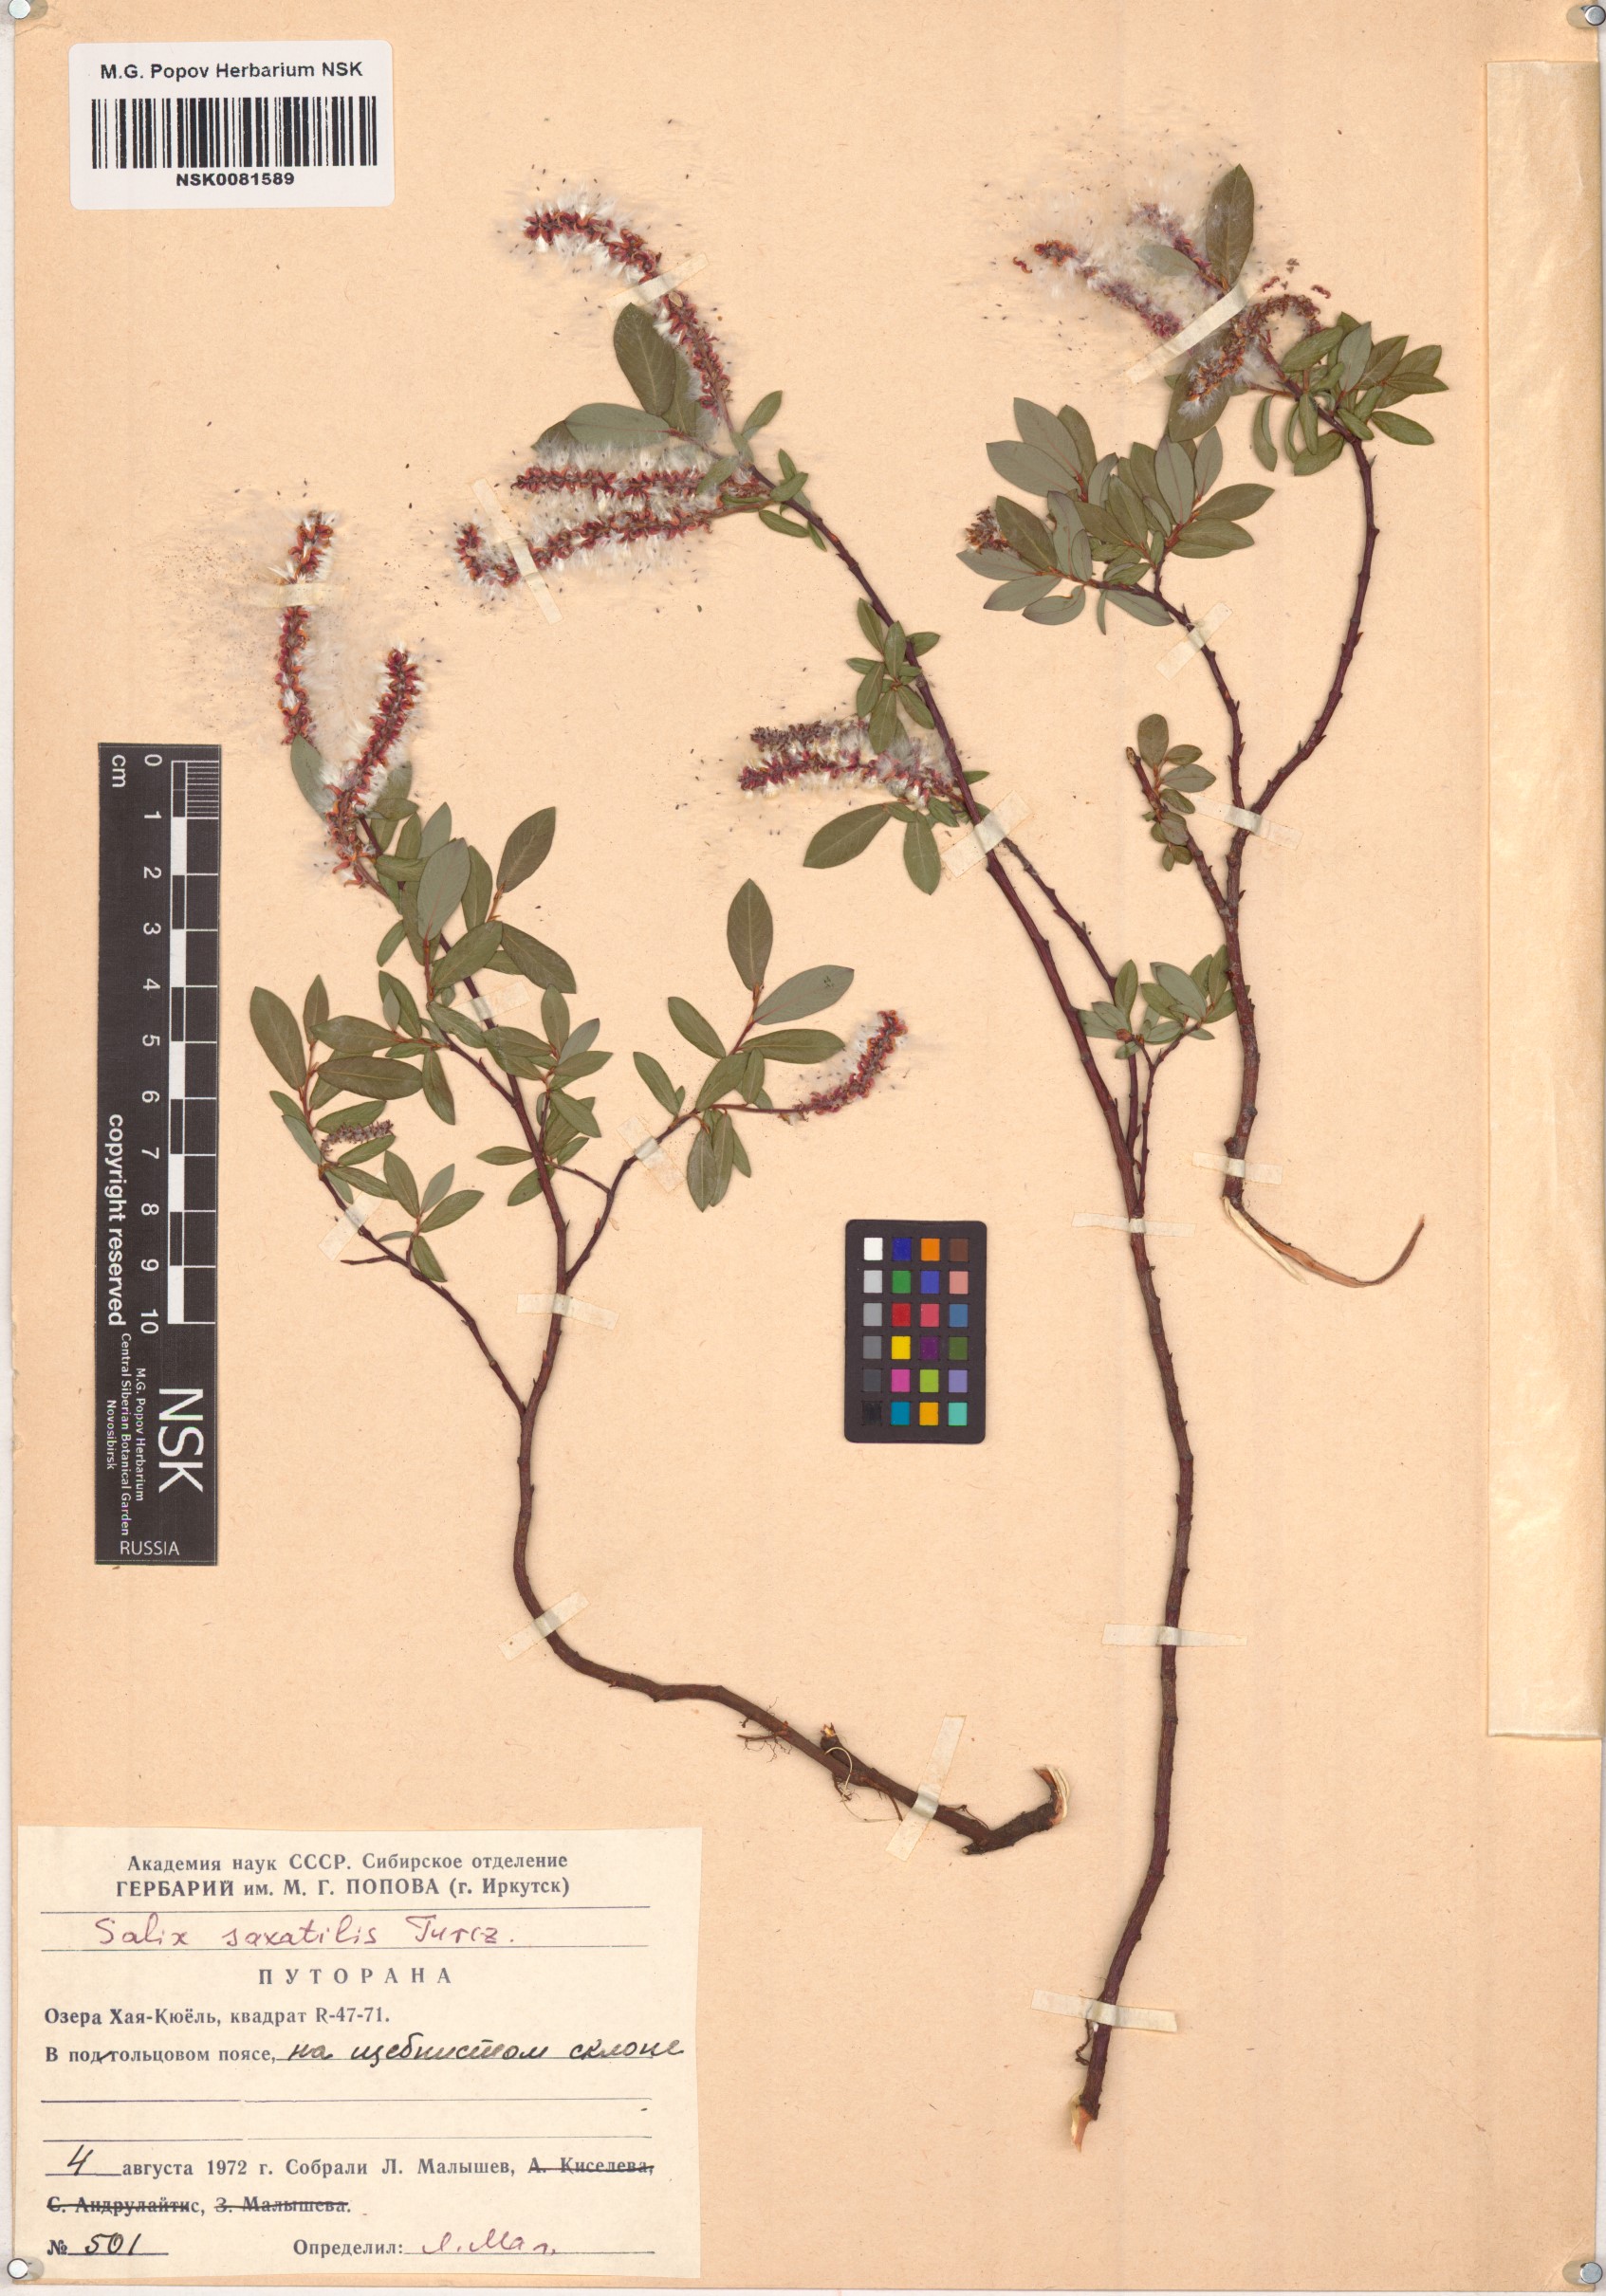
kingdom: Plantae
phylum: Tracheophyta
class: Magnoliopsida
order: Malpighiales
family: Salicaceae
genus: Salix
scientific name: Salix saxatilis
